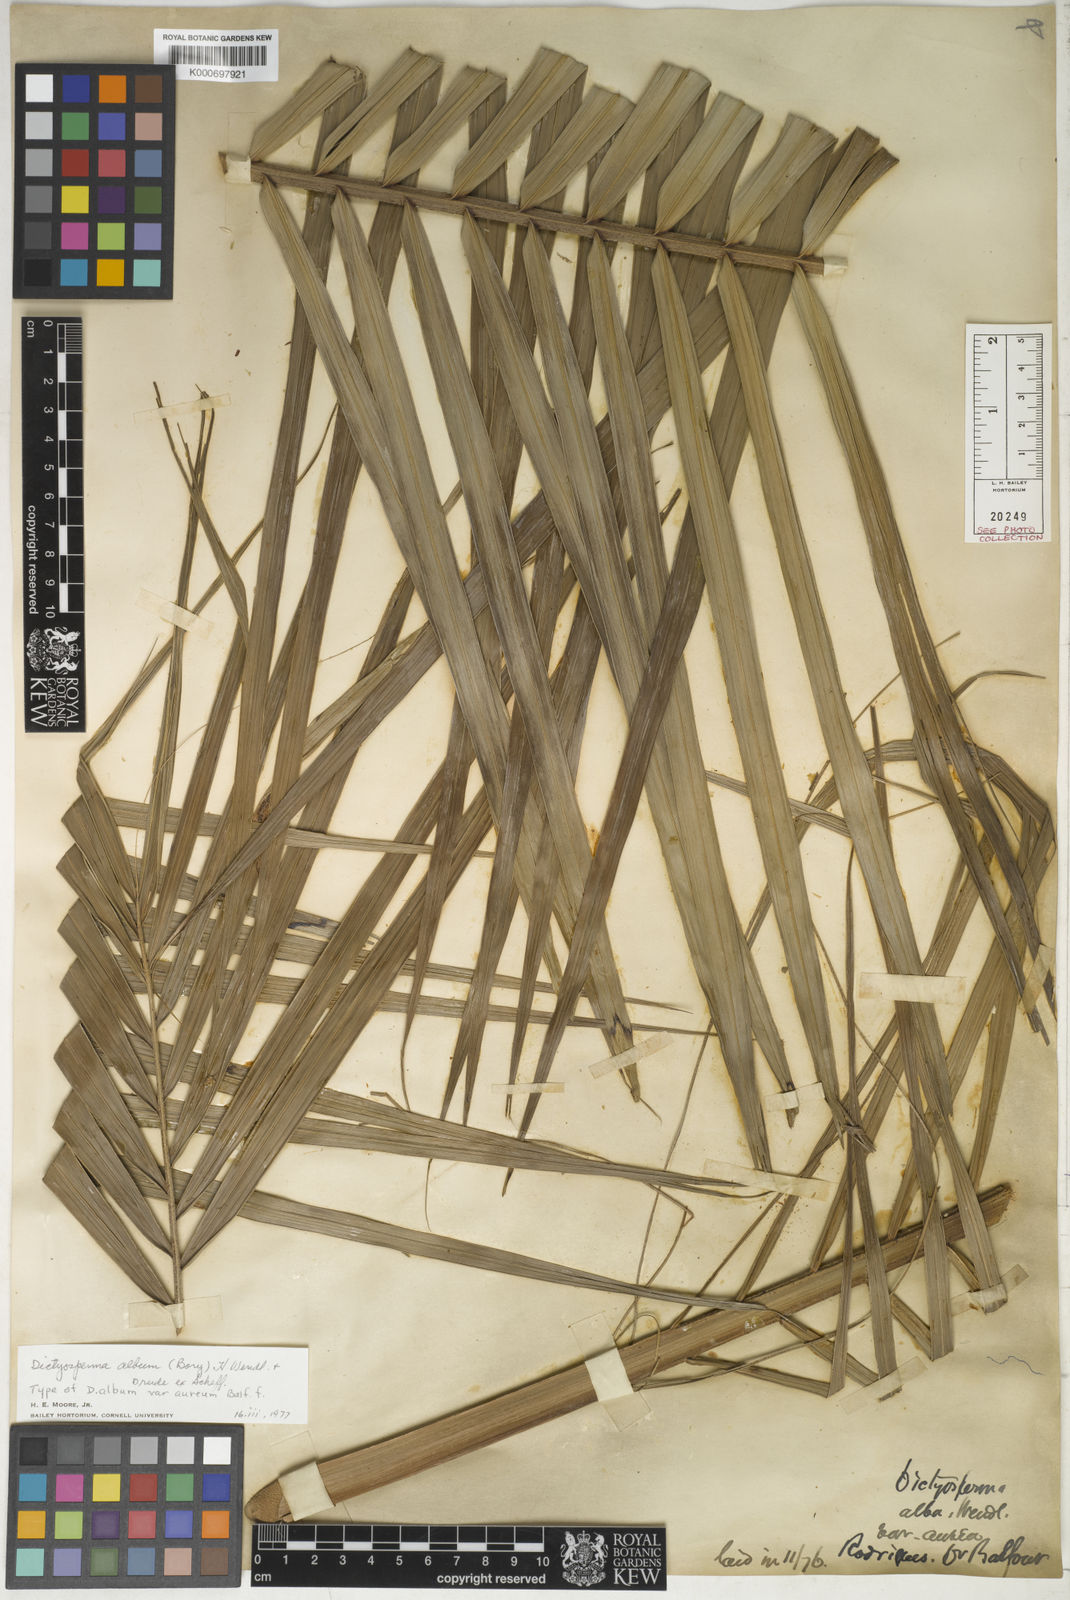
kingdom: Plantae
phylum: Tracheophyta
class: Liliopsida
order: Arecales
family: Arecaceae
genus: Dictyosperma
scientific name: Dictyosperma album
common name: Common princess palm
